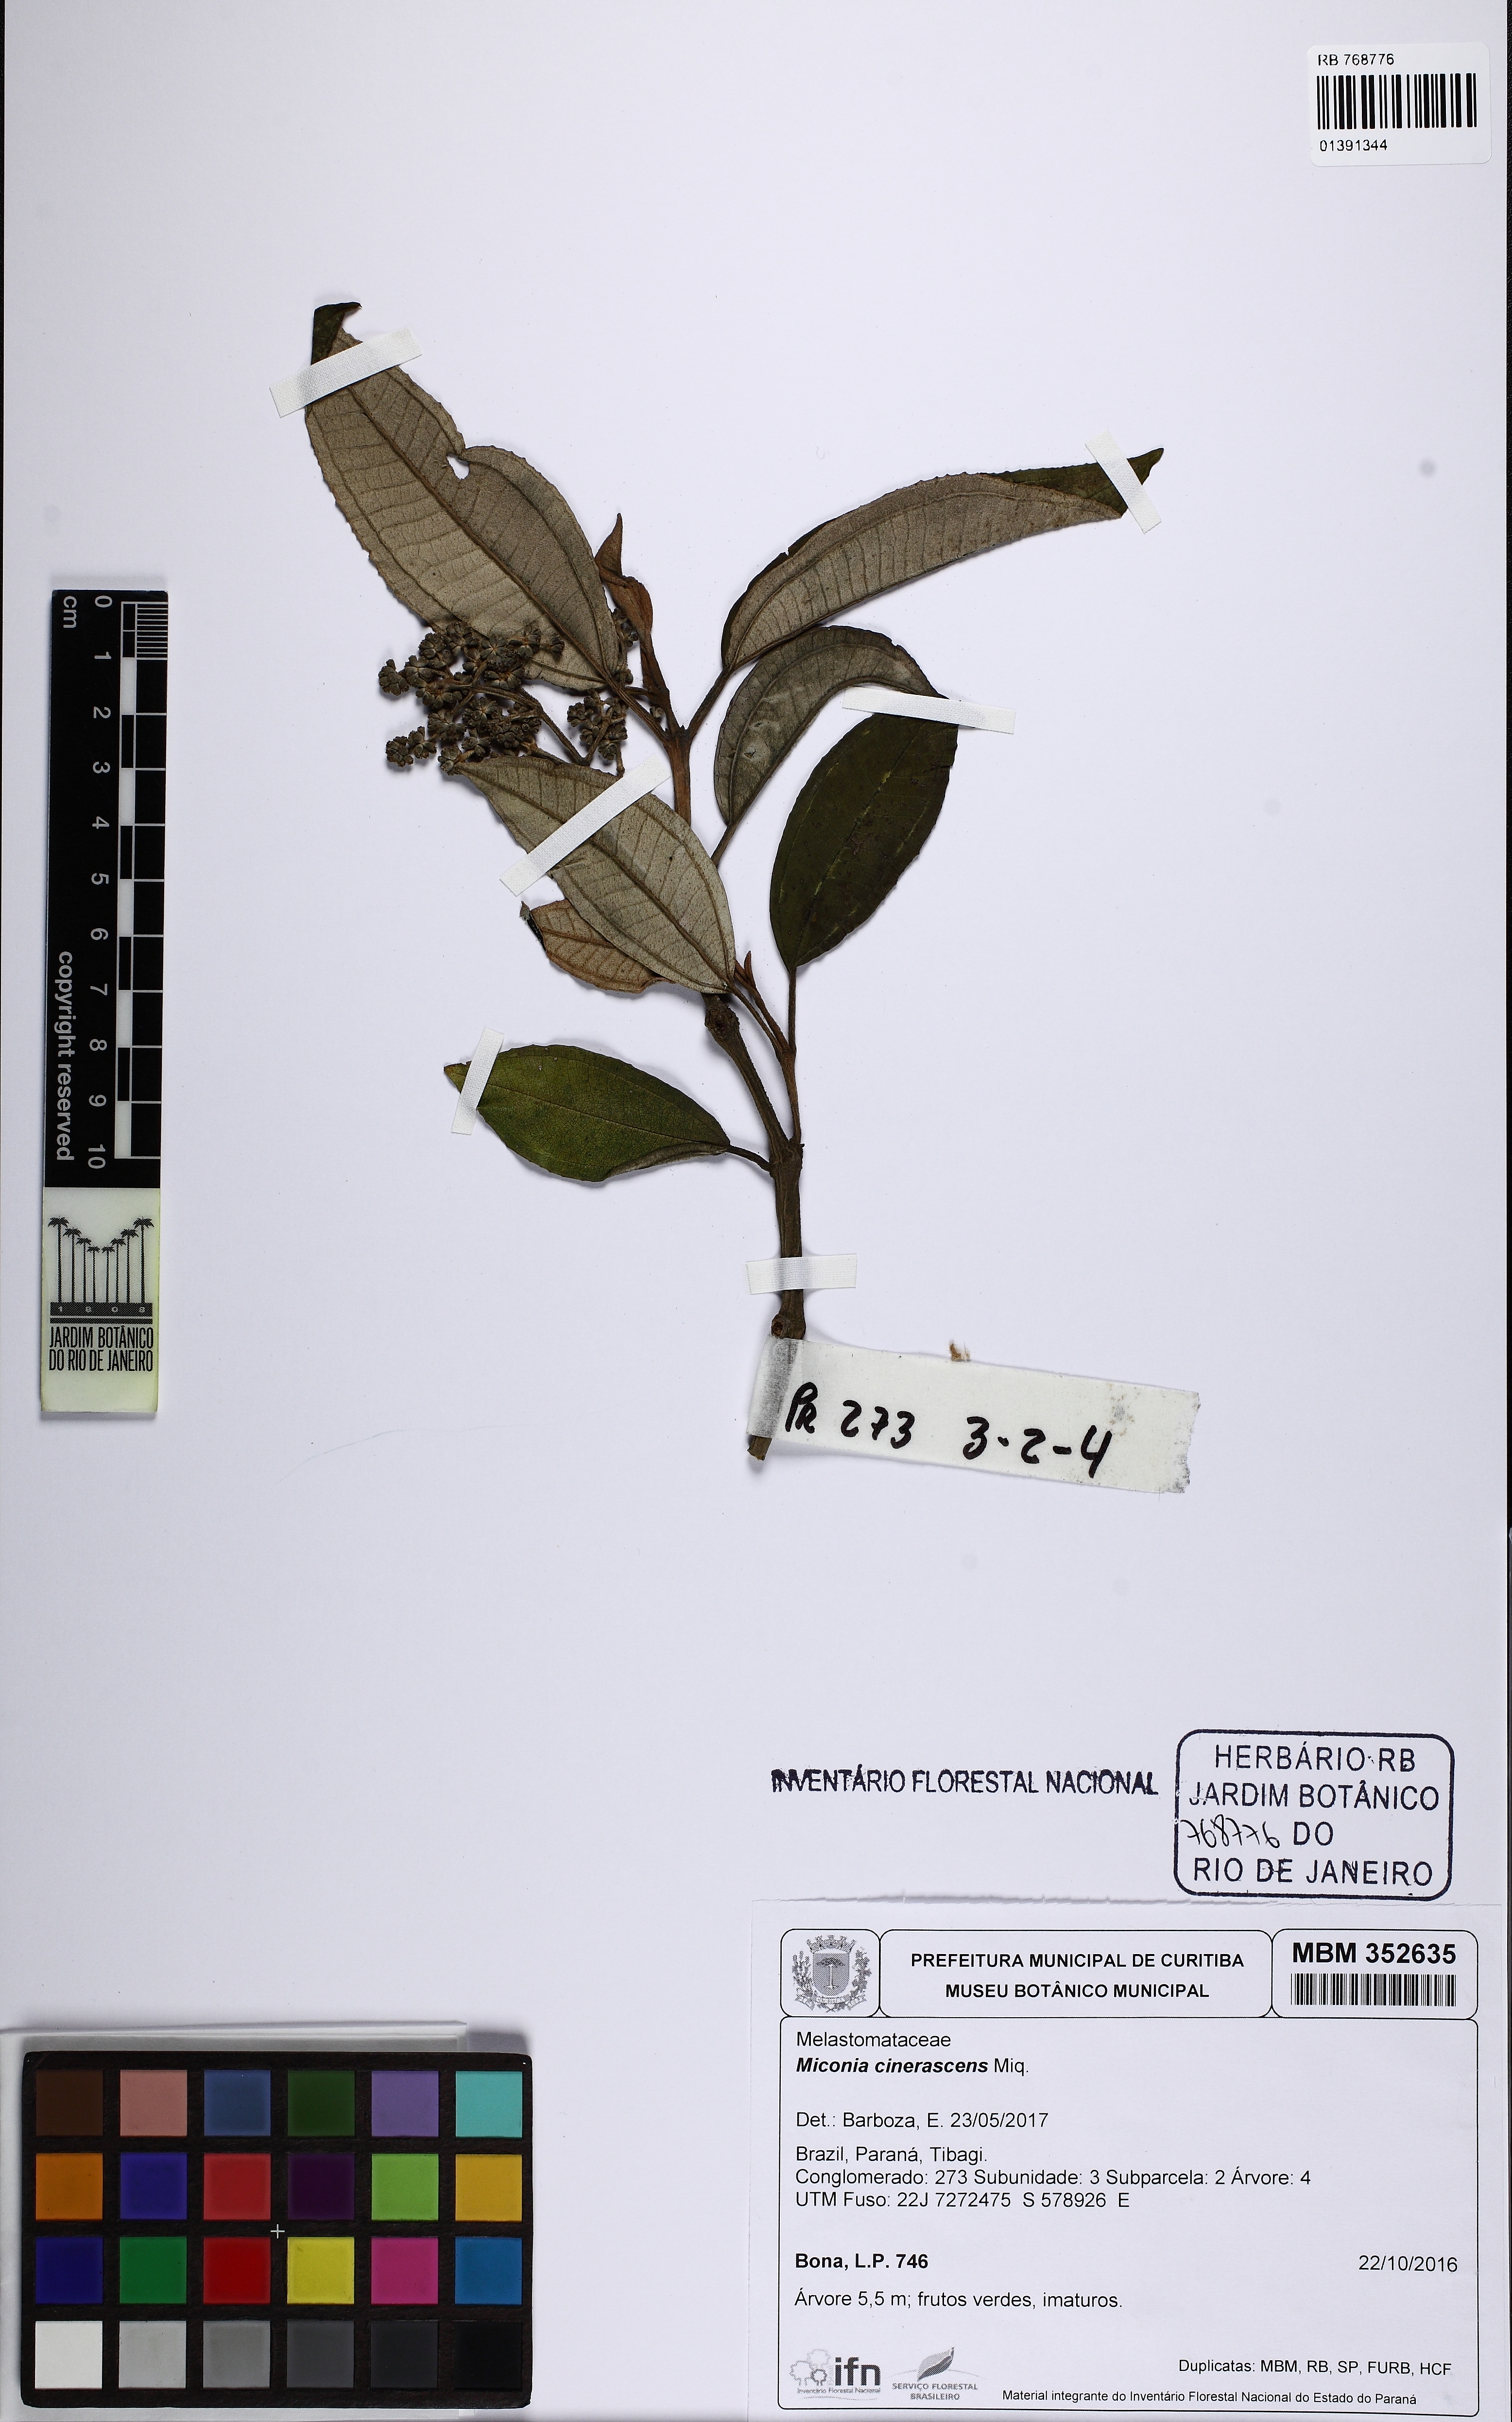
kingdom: Plantae
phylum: Tracheophyta
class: Magnoliopsida
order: Myrtales
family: Melastomataceae
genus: Miconia
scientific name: Miconia cinerascens
